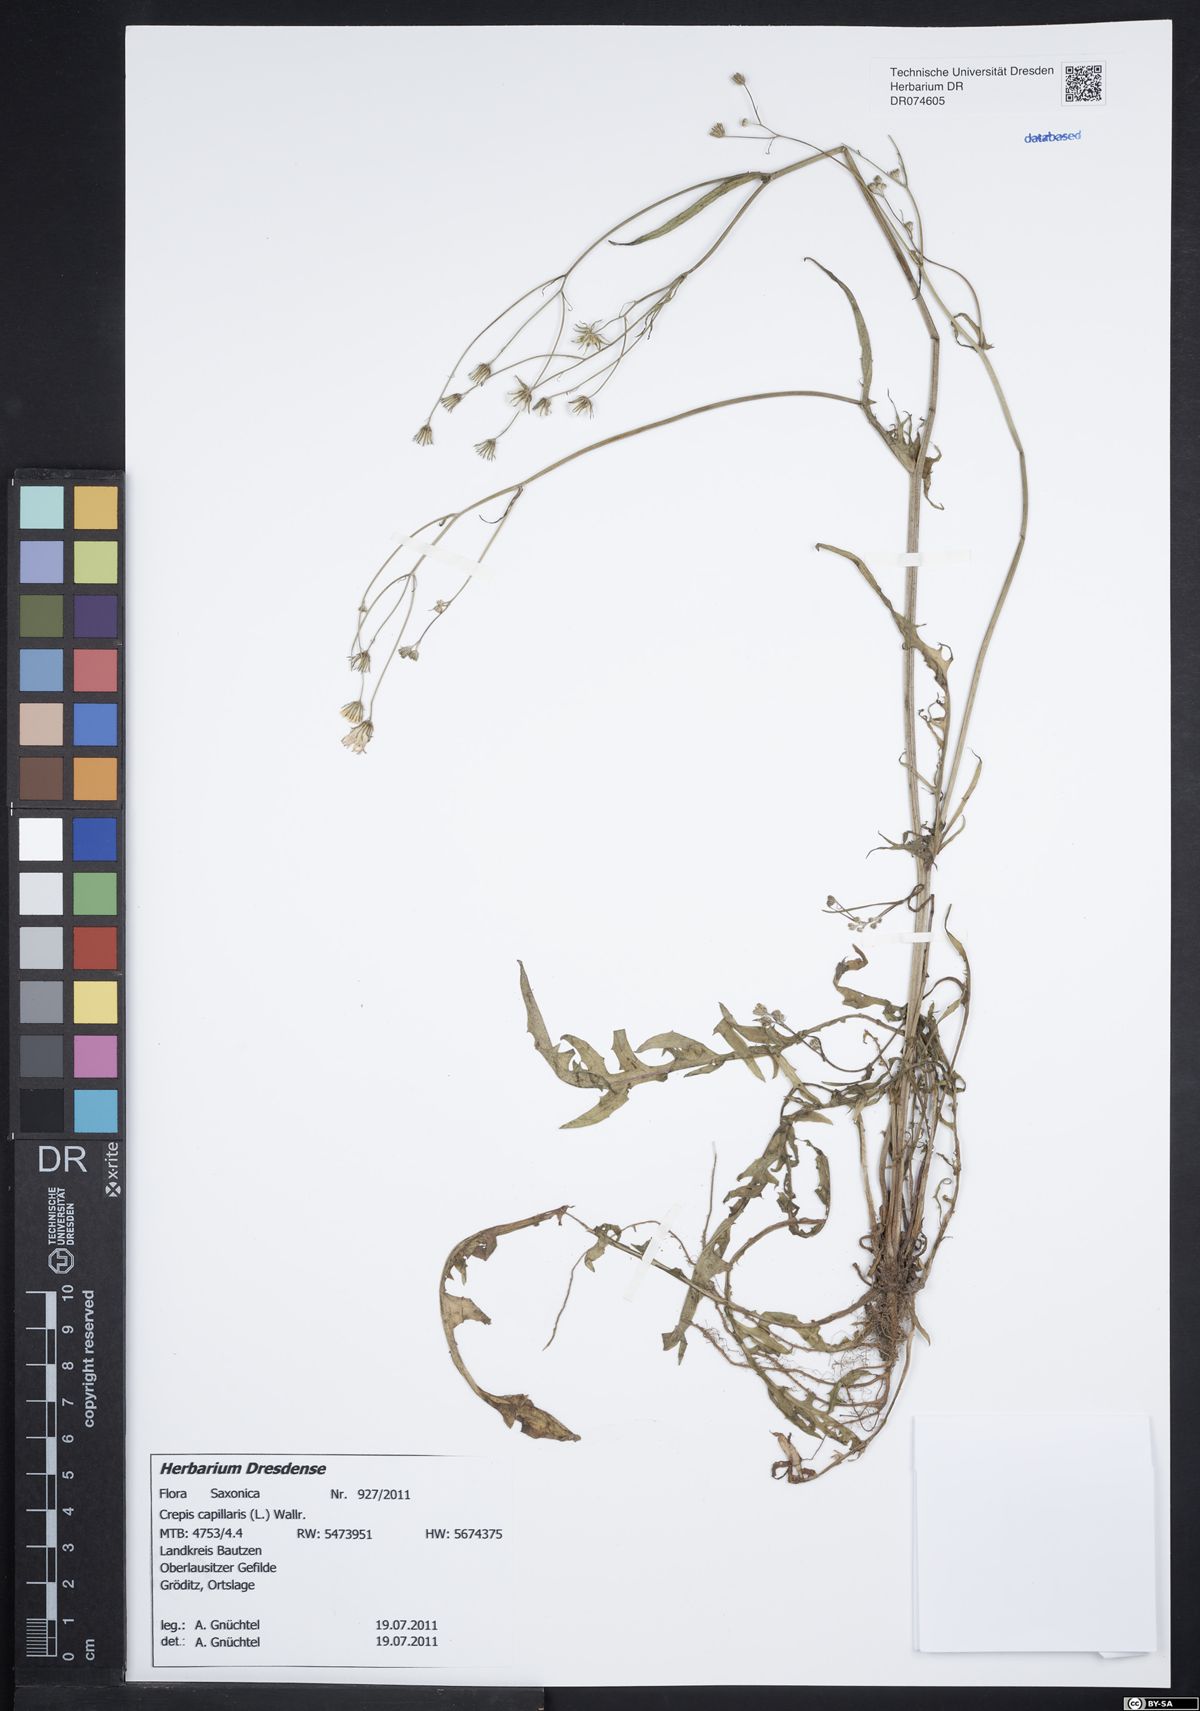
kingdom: Plantae
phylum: Tracheophyta
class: Magnoliopsida
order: Asterales
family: Asteraceae
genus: Crepis
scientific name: Crepis capillaris
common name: Smooth hawksbeard
